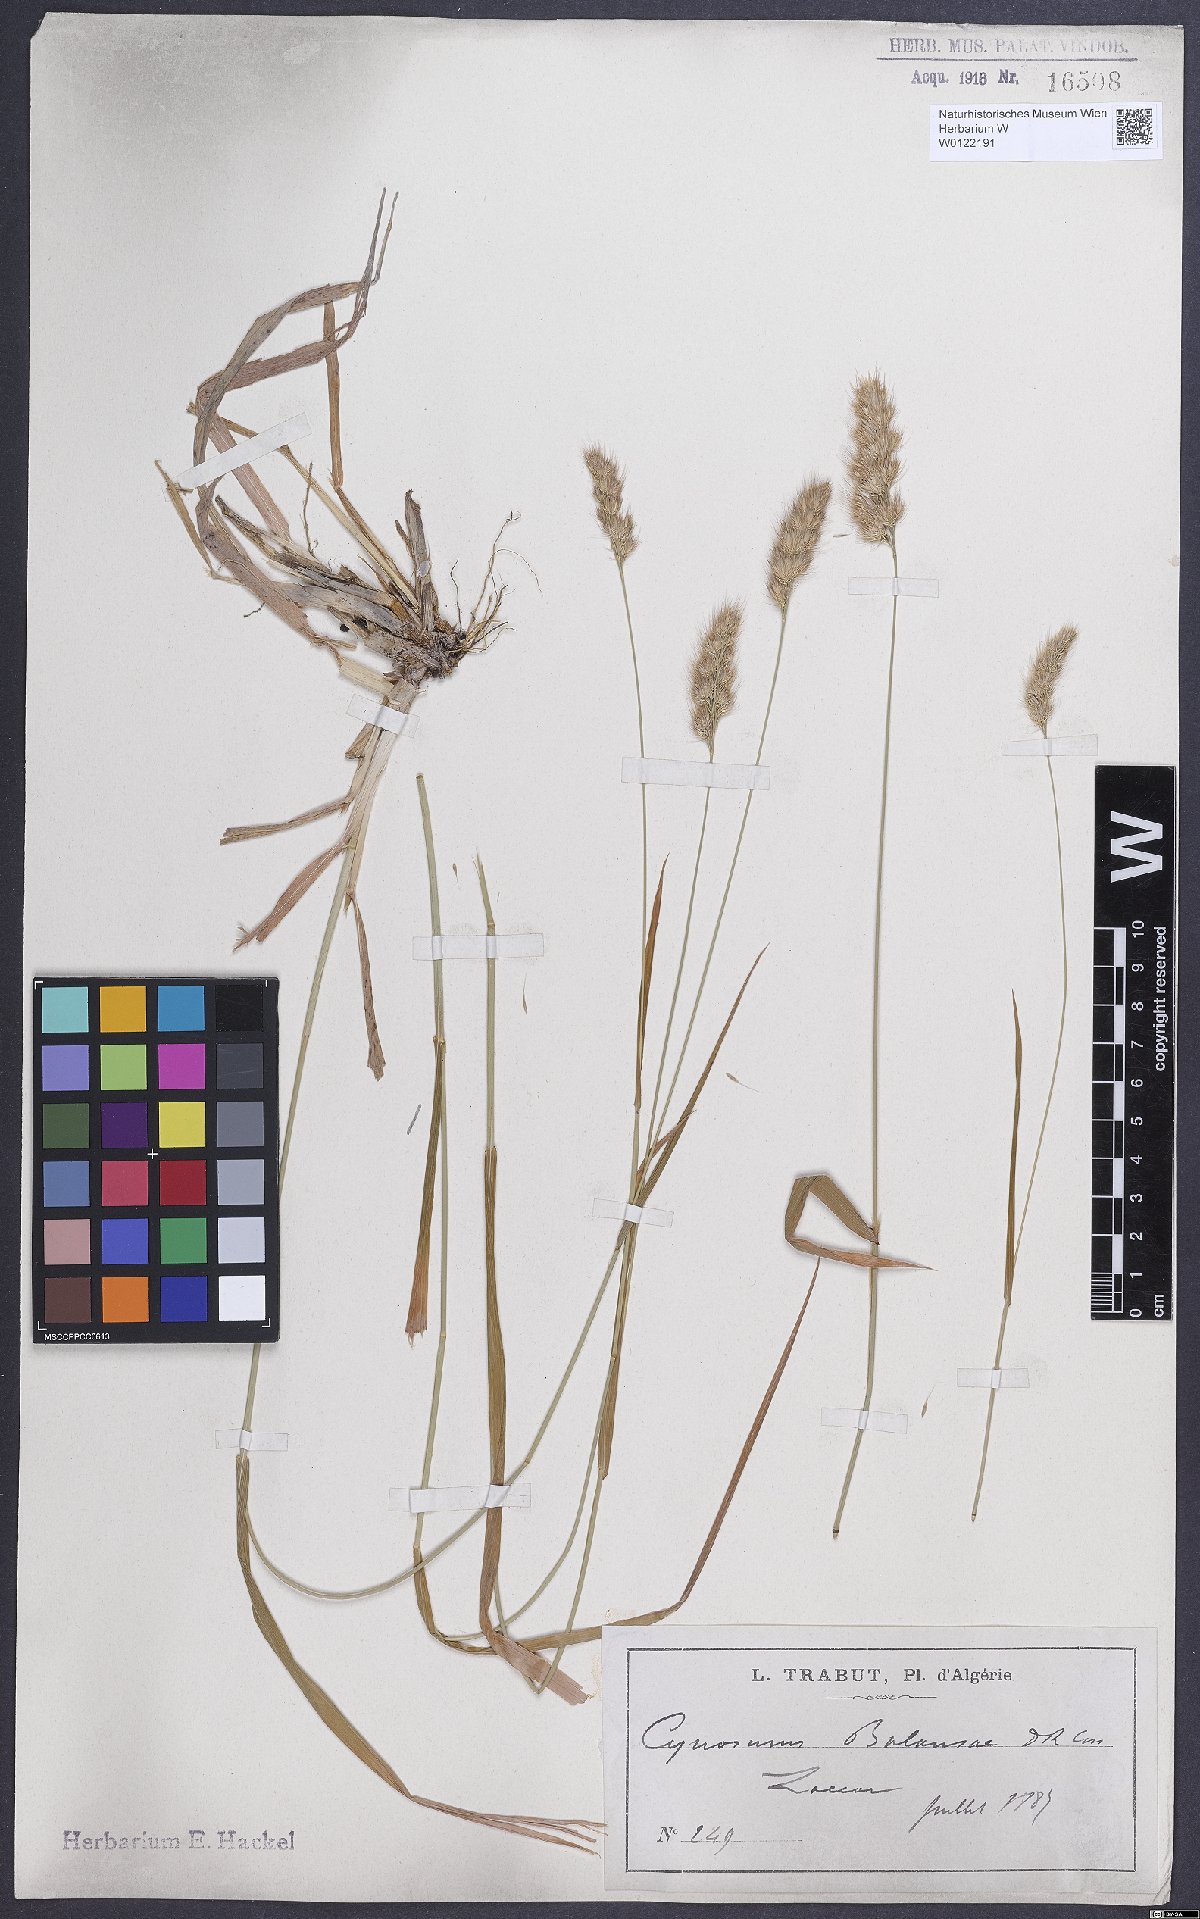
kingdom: Plantae
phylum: Tracheophyta
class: Liliopsida
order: Poales
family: Poaceae
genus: Cynosurus
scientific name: Cynosurus balansae
